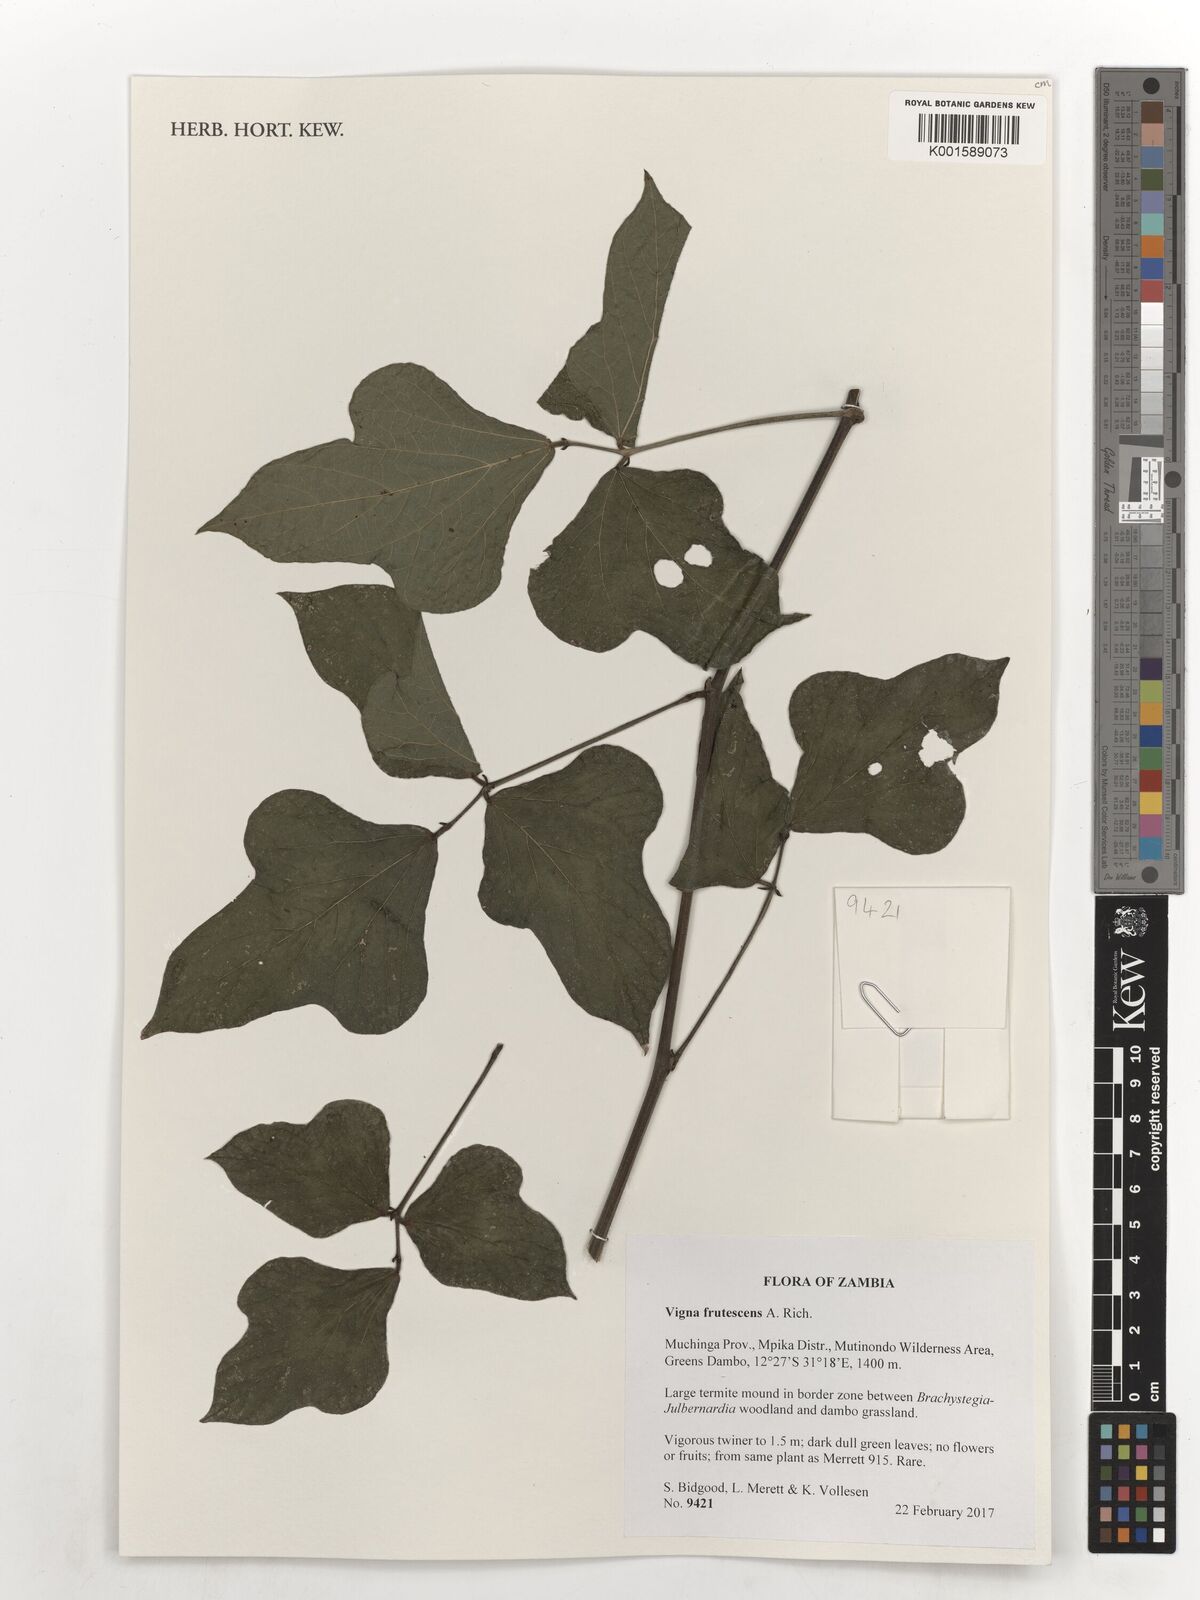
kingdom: Plantae
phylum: Tracheophyta
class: Magnoliopsida
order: Fabales
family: Fabaceae
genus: Vigna
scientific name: Vigna frutescens
